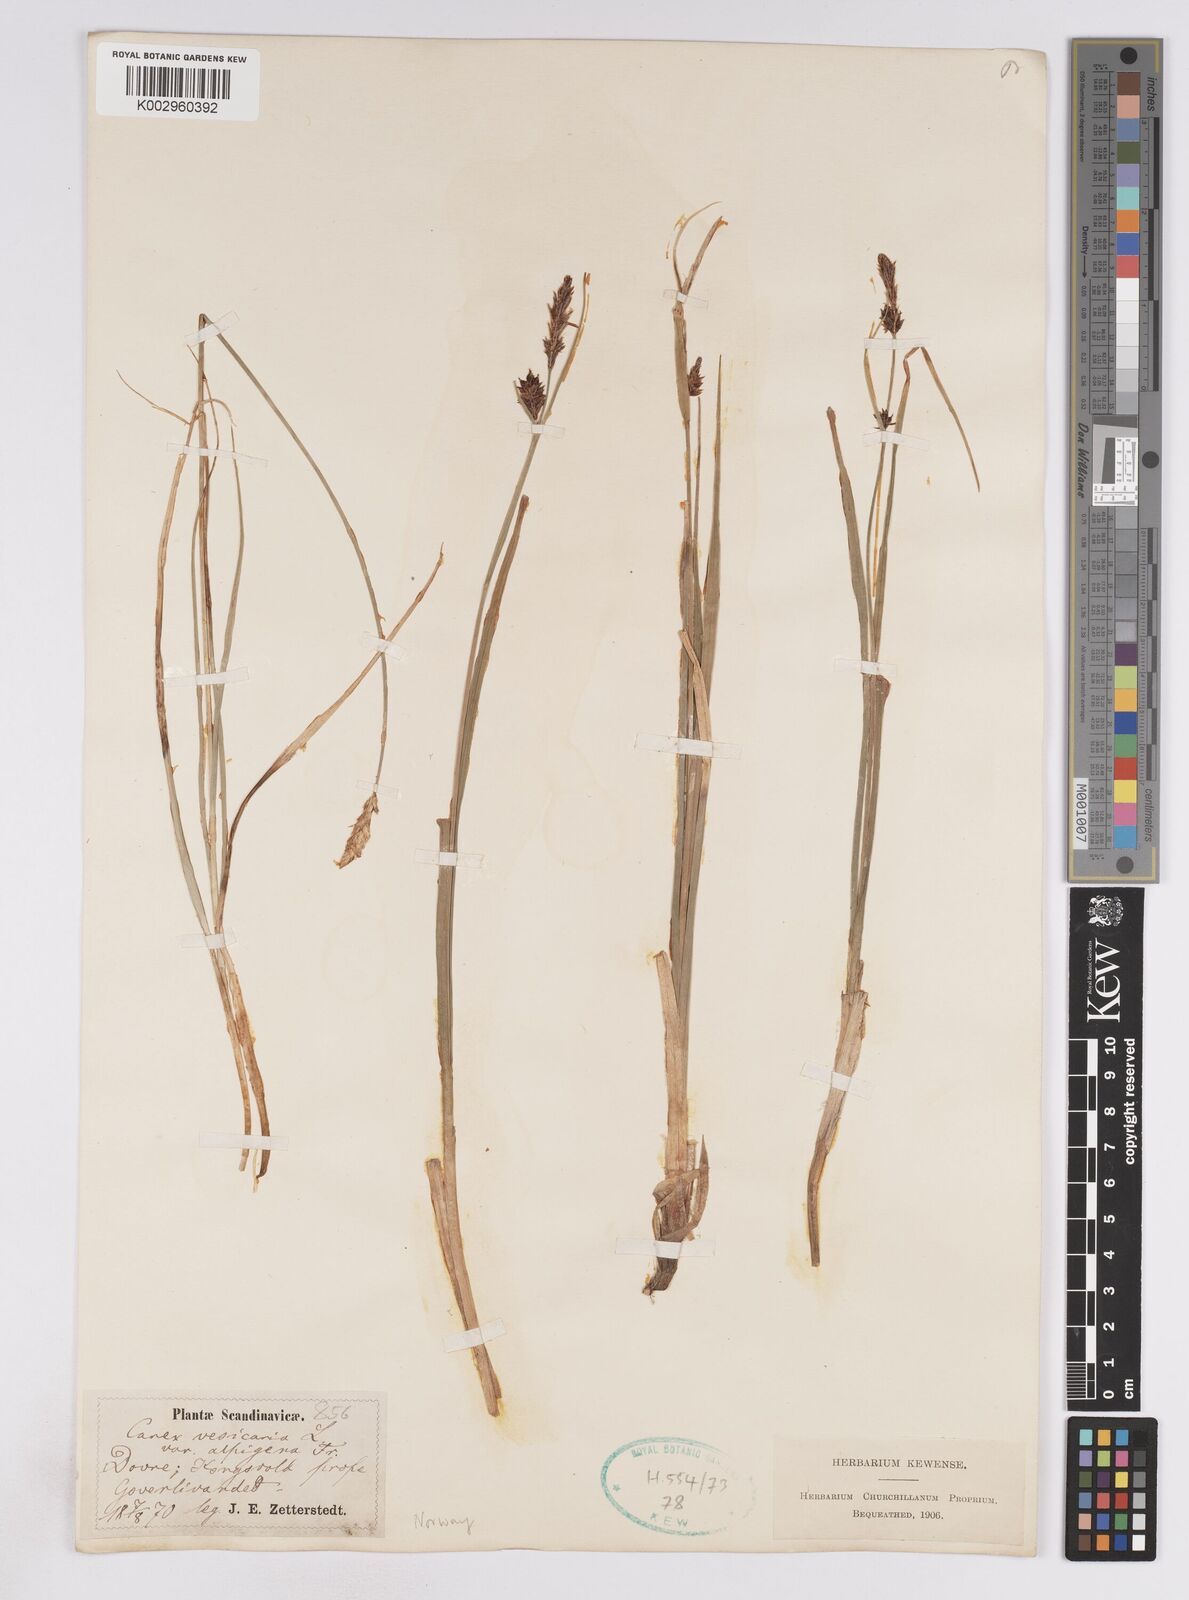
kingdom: Plantae
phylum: Tracheophyta
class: Liliopsida
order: Poales
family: Cyperaceae
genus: Carex
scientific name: Carex rostrata
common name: Bottle sedge
